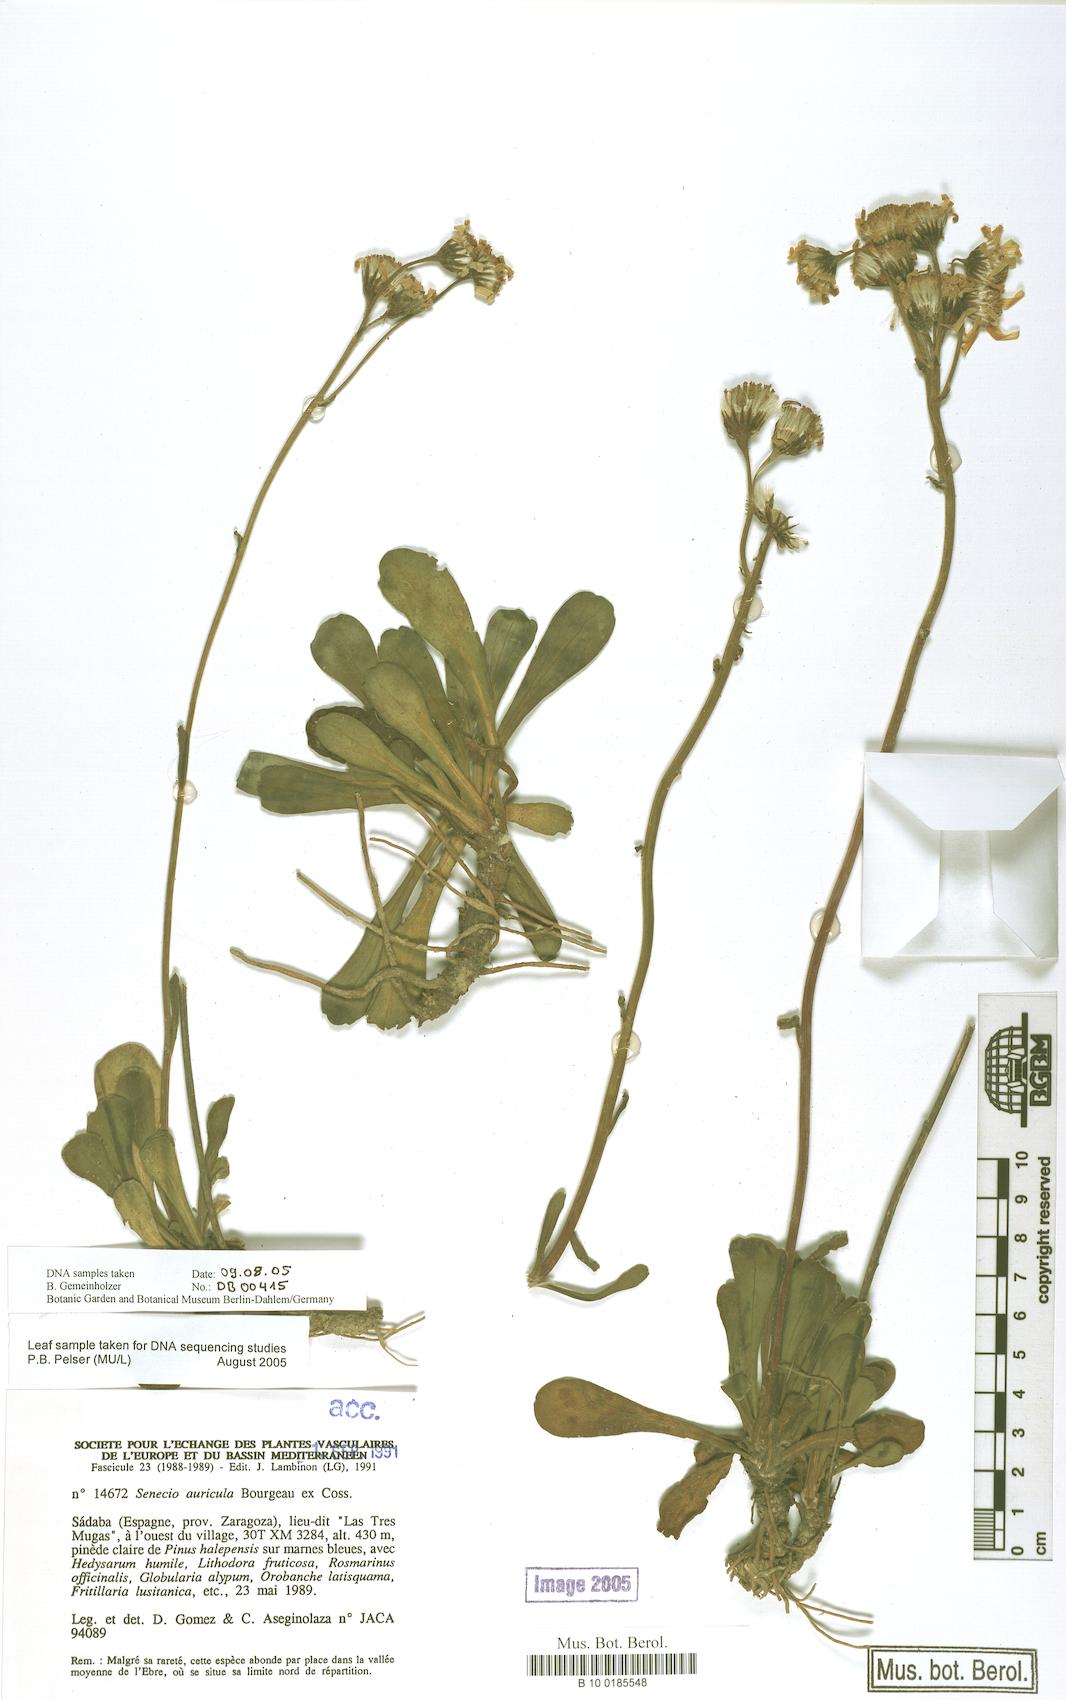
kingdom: Plantae
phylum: Tracheophyta
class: Magnoliopsida
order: Asterales
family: Asteraceae
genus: Senecio
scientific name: Senecio auricula
